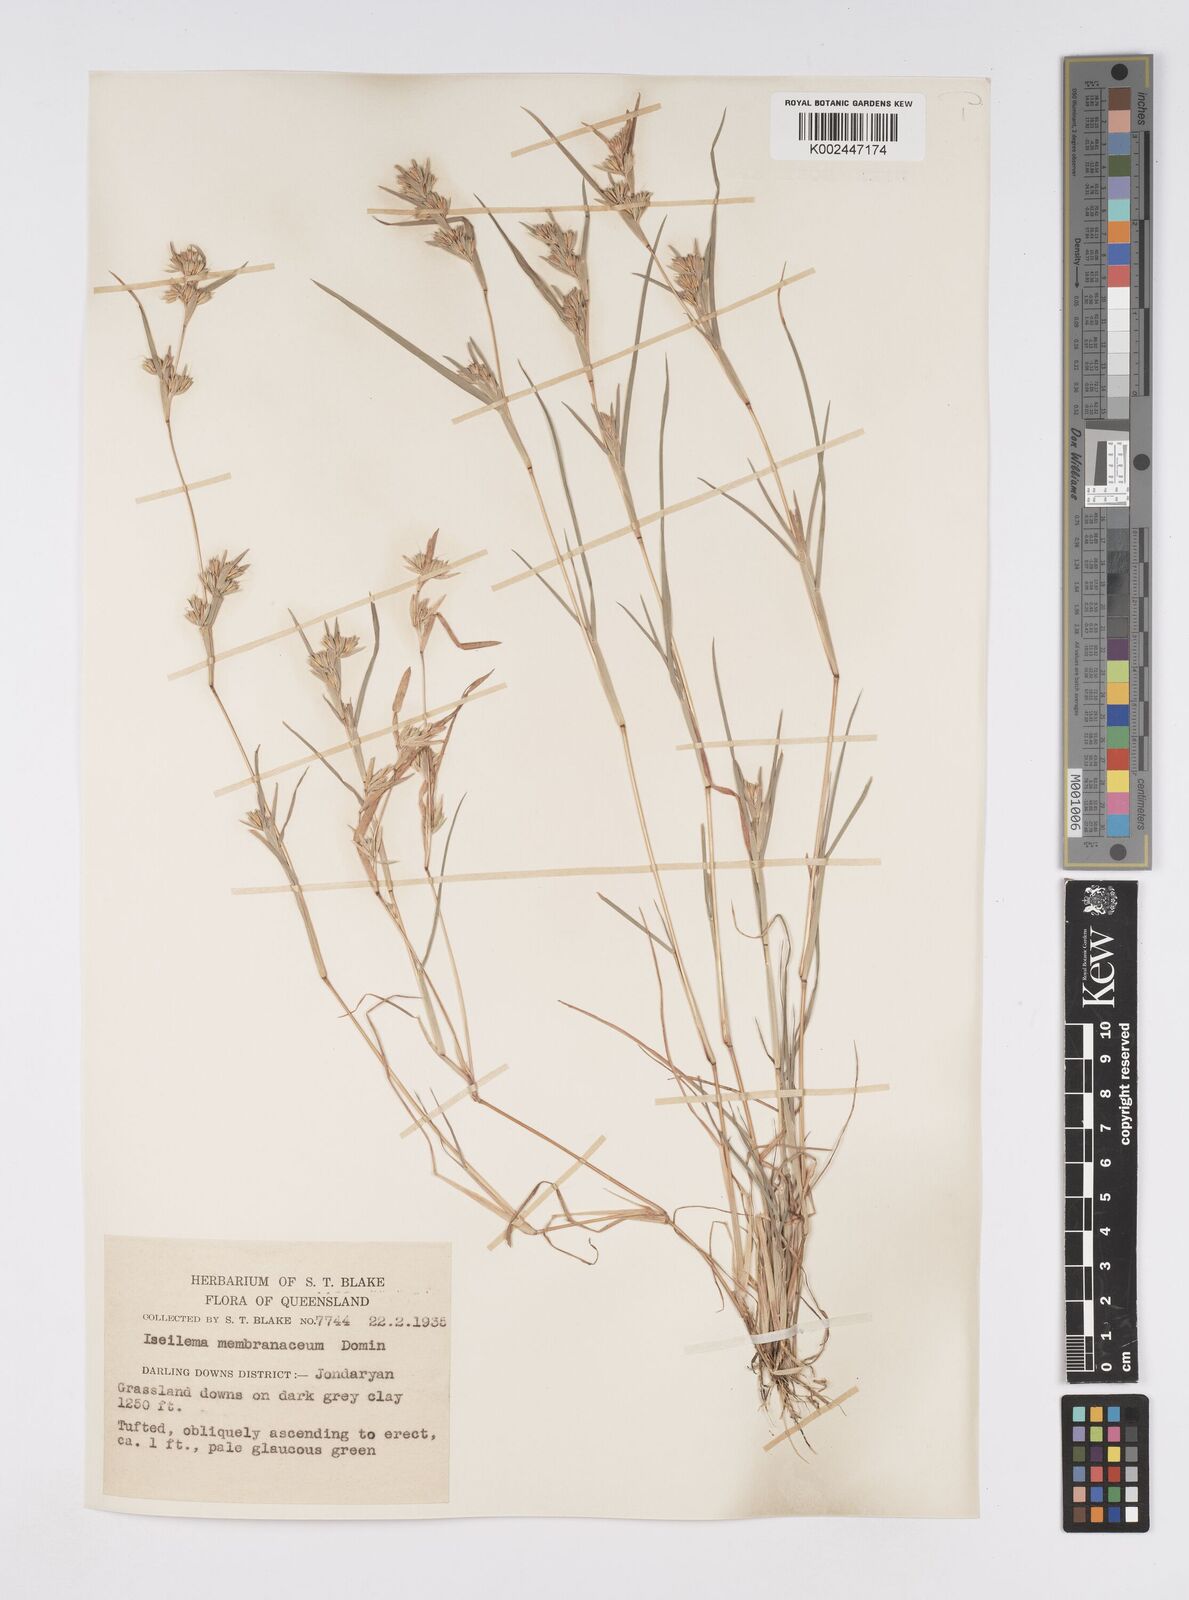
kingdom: Plantae
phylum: Tracheophyta
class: Liliopsida
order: Poales
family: Poaceae
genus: Iseilema
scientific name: Iseilema membranaceum
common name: Small flinders grass
